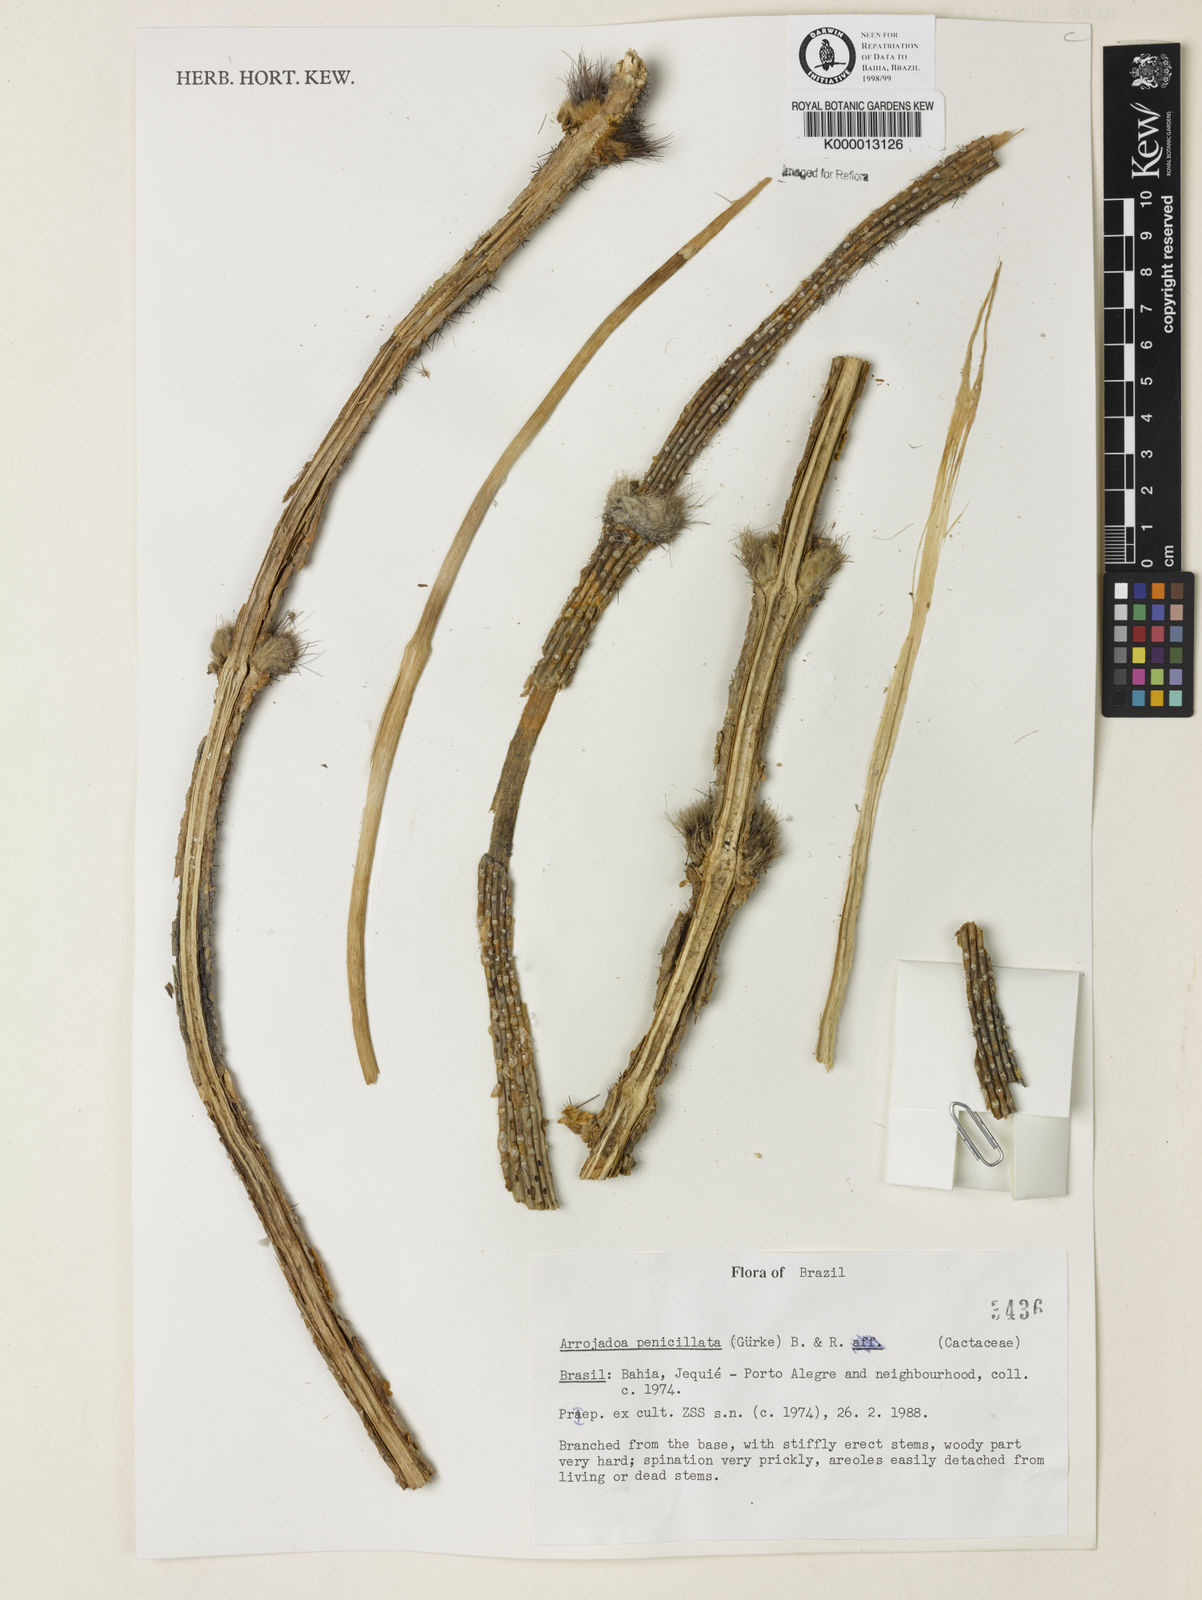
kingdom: Plantae
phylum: Tracheophyta
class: Magnoliopsida
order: Caryophyllales
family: Cactaceae
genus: Arrojadoa
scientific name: Arrojadoa penicillata
